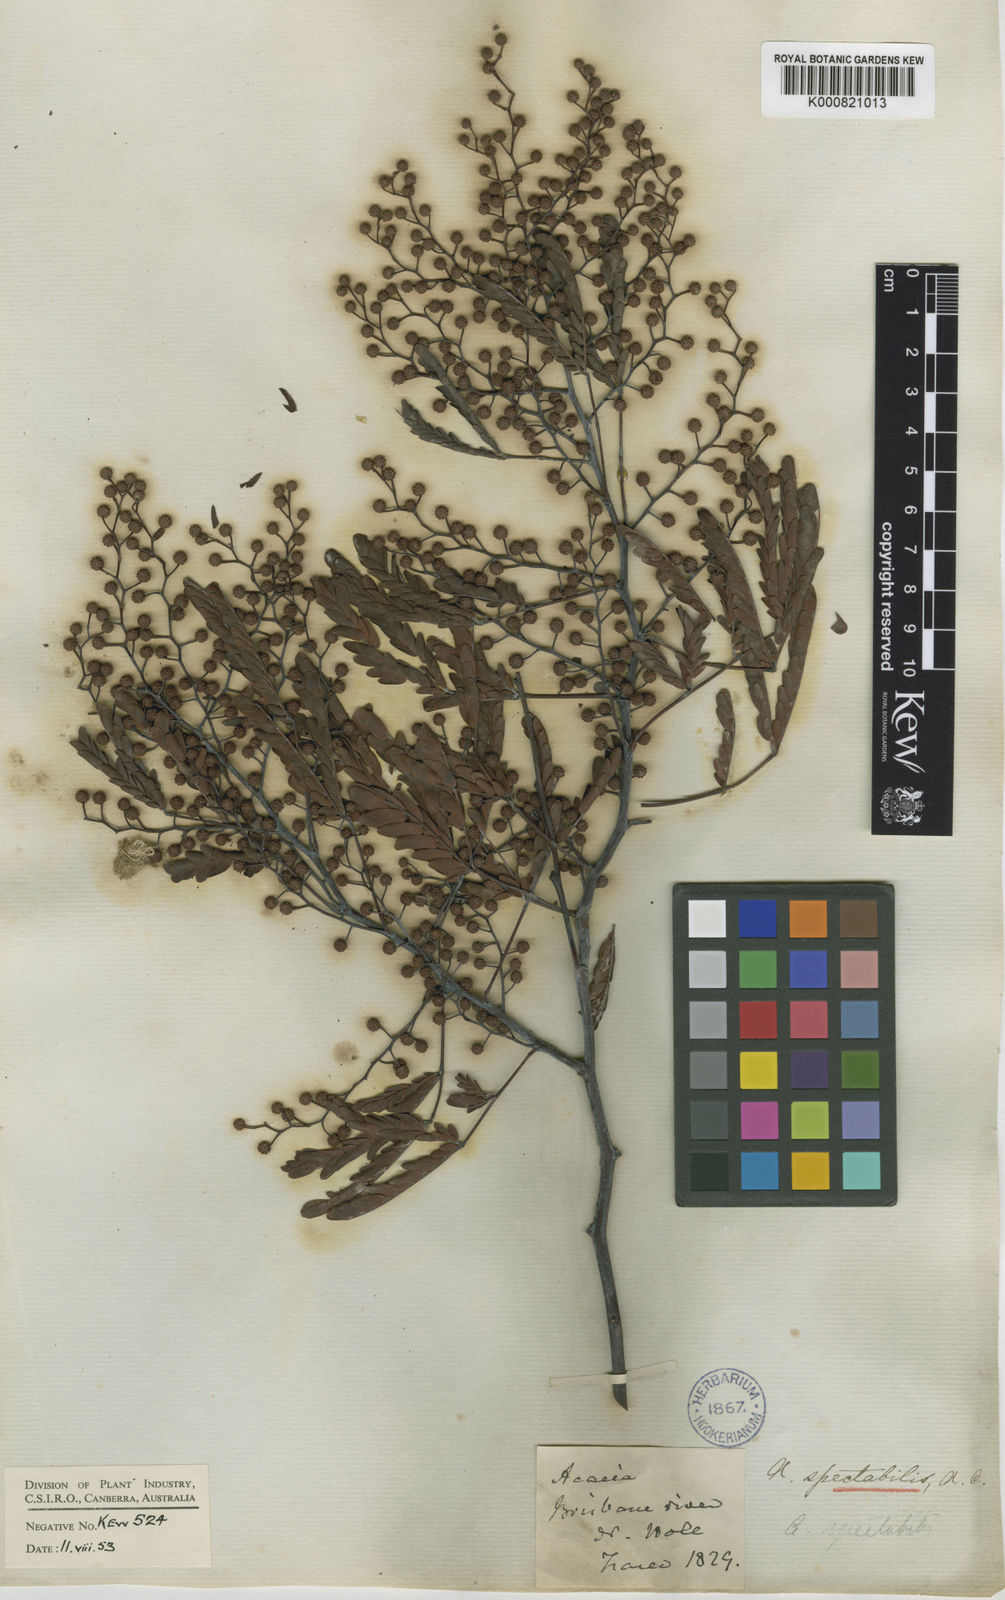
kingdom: Plantae
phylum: Tracheophyta
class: Magnoliopsida
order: Fabales
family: Fabaceae
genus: Acacia
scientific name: Acacia spectabilis
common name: Golden wattle
